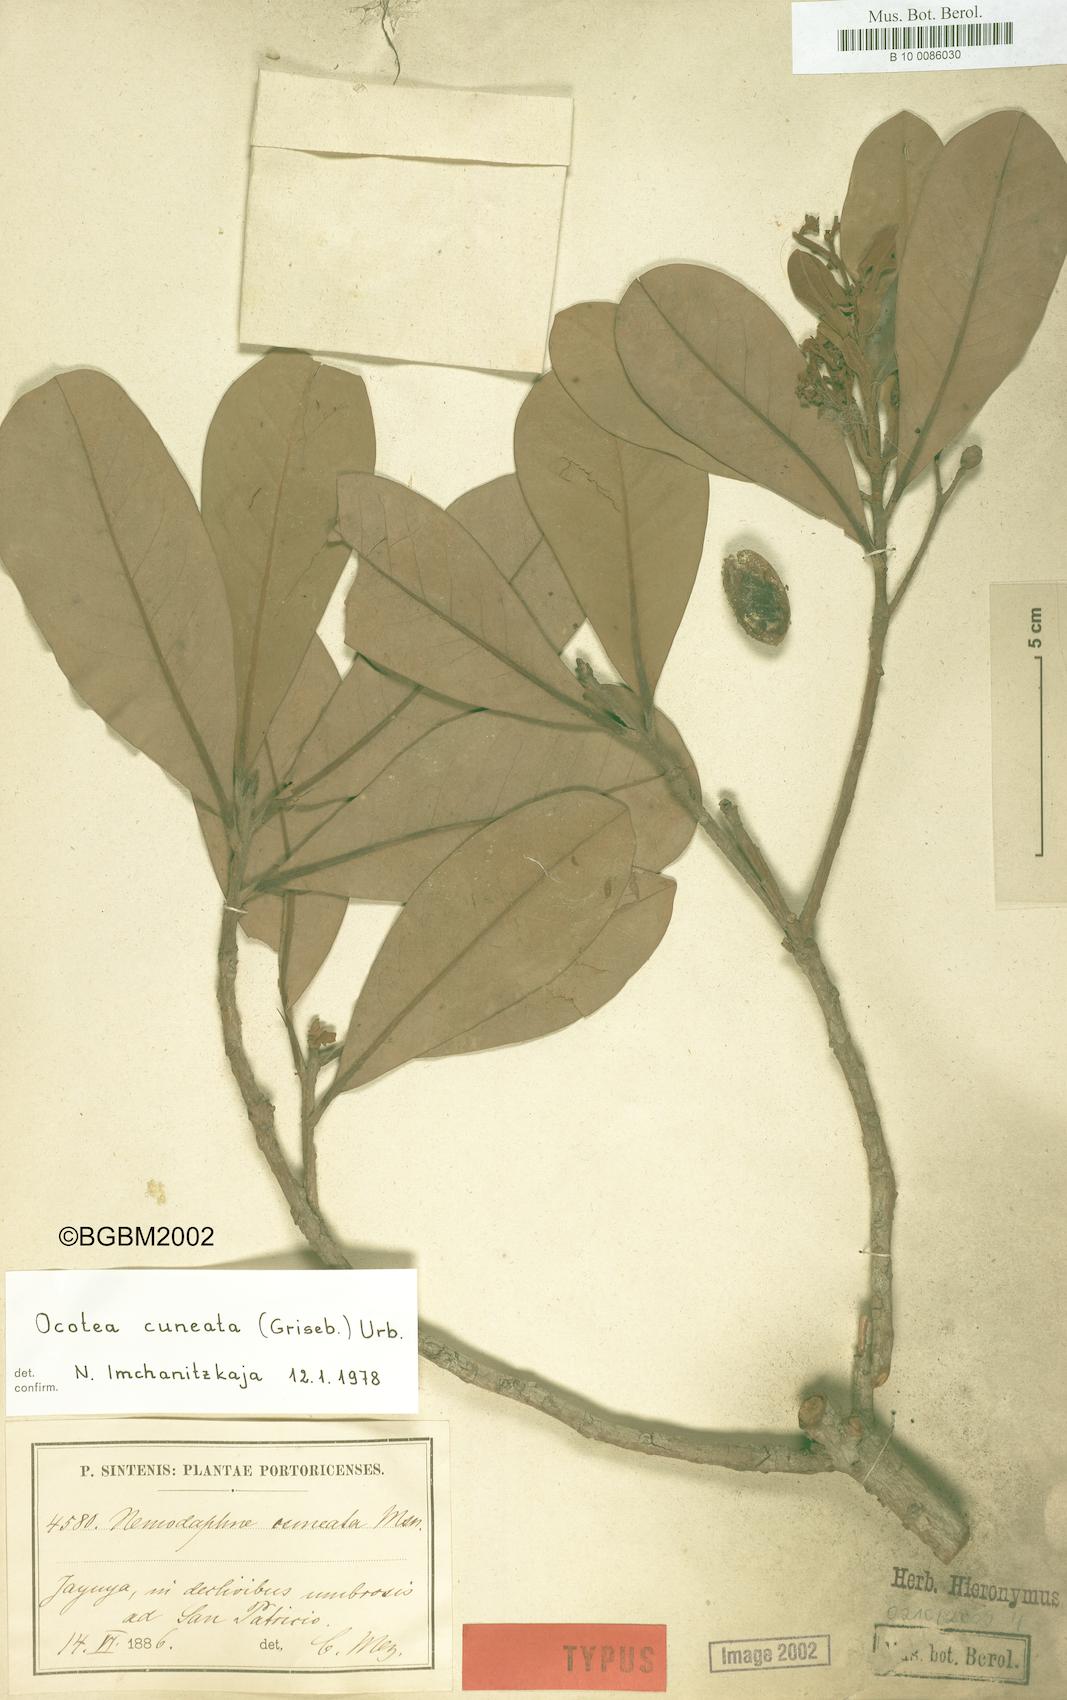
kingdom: Plantae
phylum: Tracheophyta
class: Magnoliopsida
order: Laurales
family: Lauraceae
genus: Ocotea
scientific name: Ocotea cuneata
